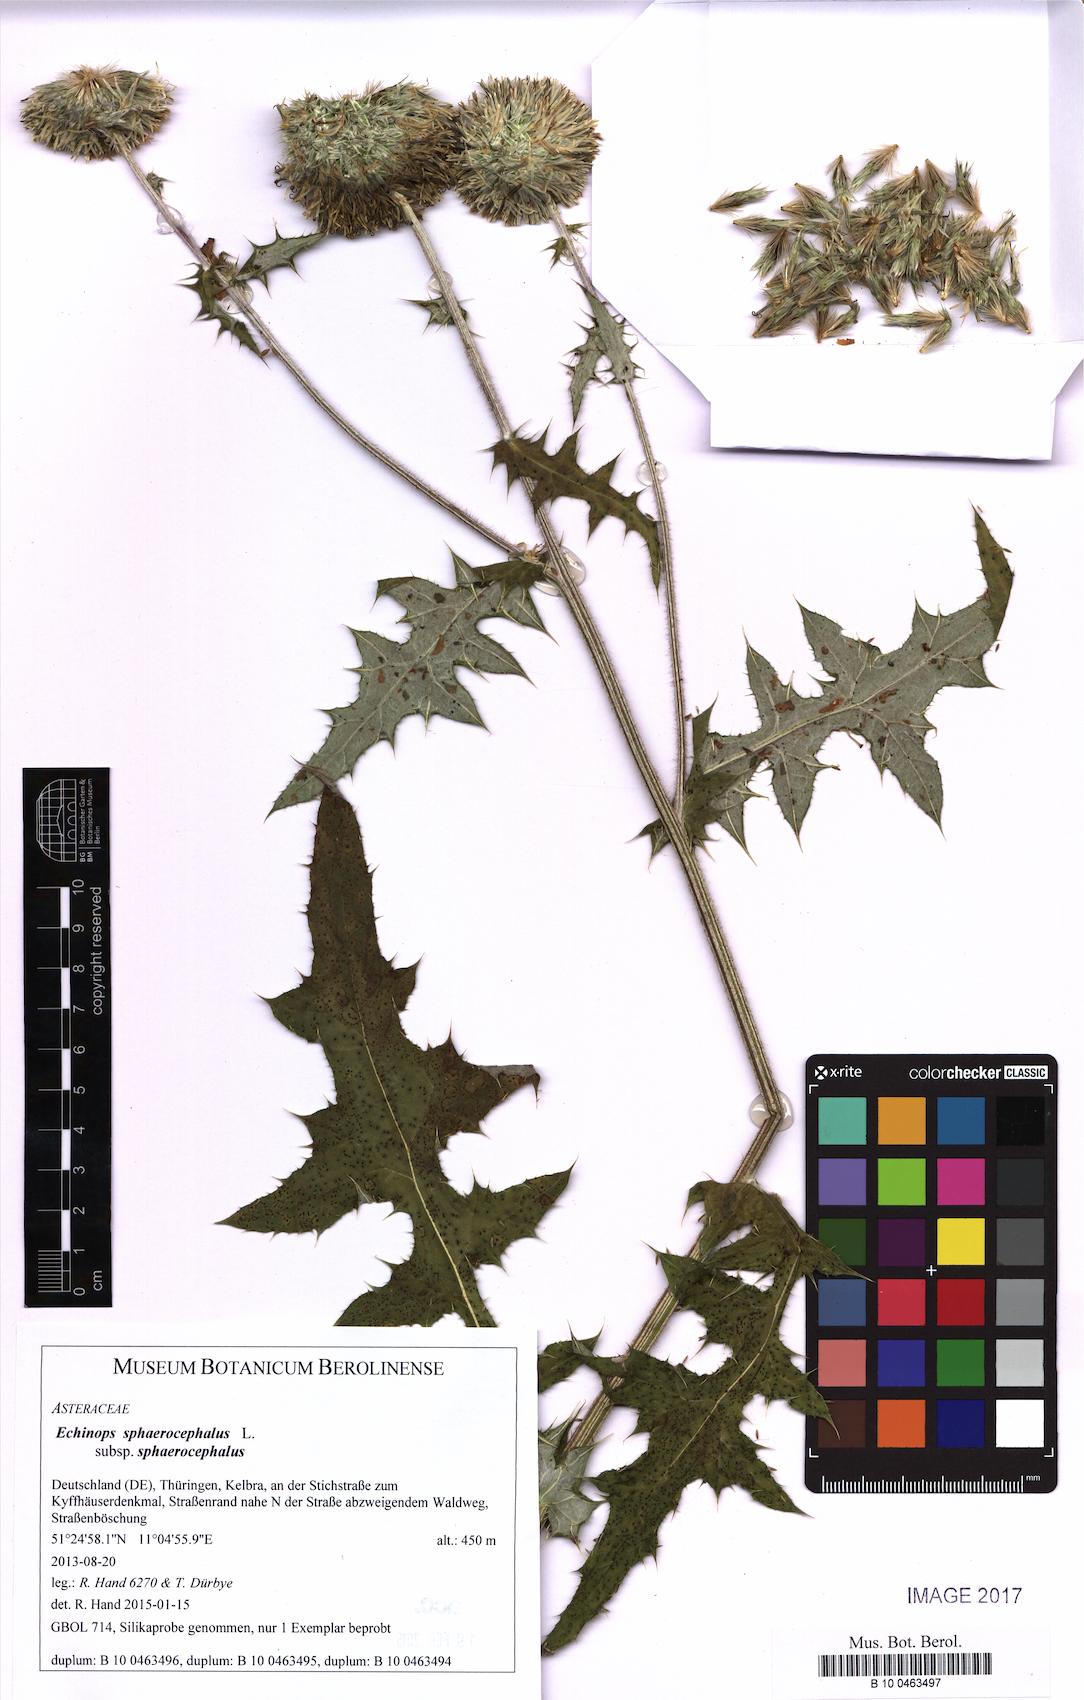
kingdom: Plantae
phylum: Tracheophyta
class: Magnoliopsida
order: Asterales
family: Asteraceae
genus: Echinops
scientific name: Echinops sphaerocephalus
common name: Glandular globe-thistle
